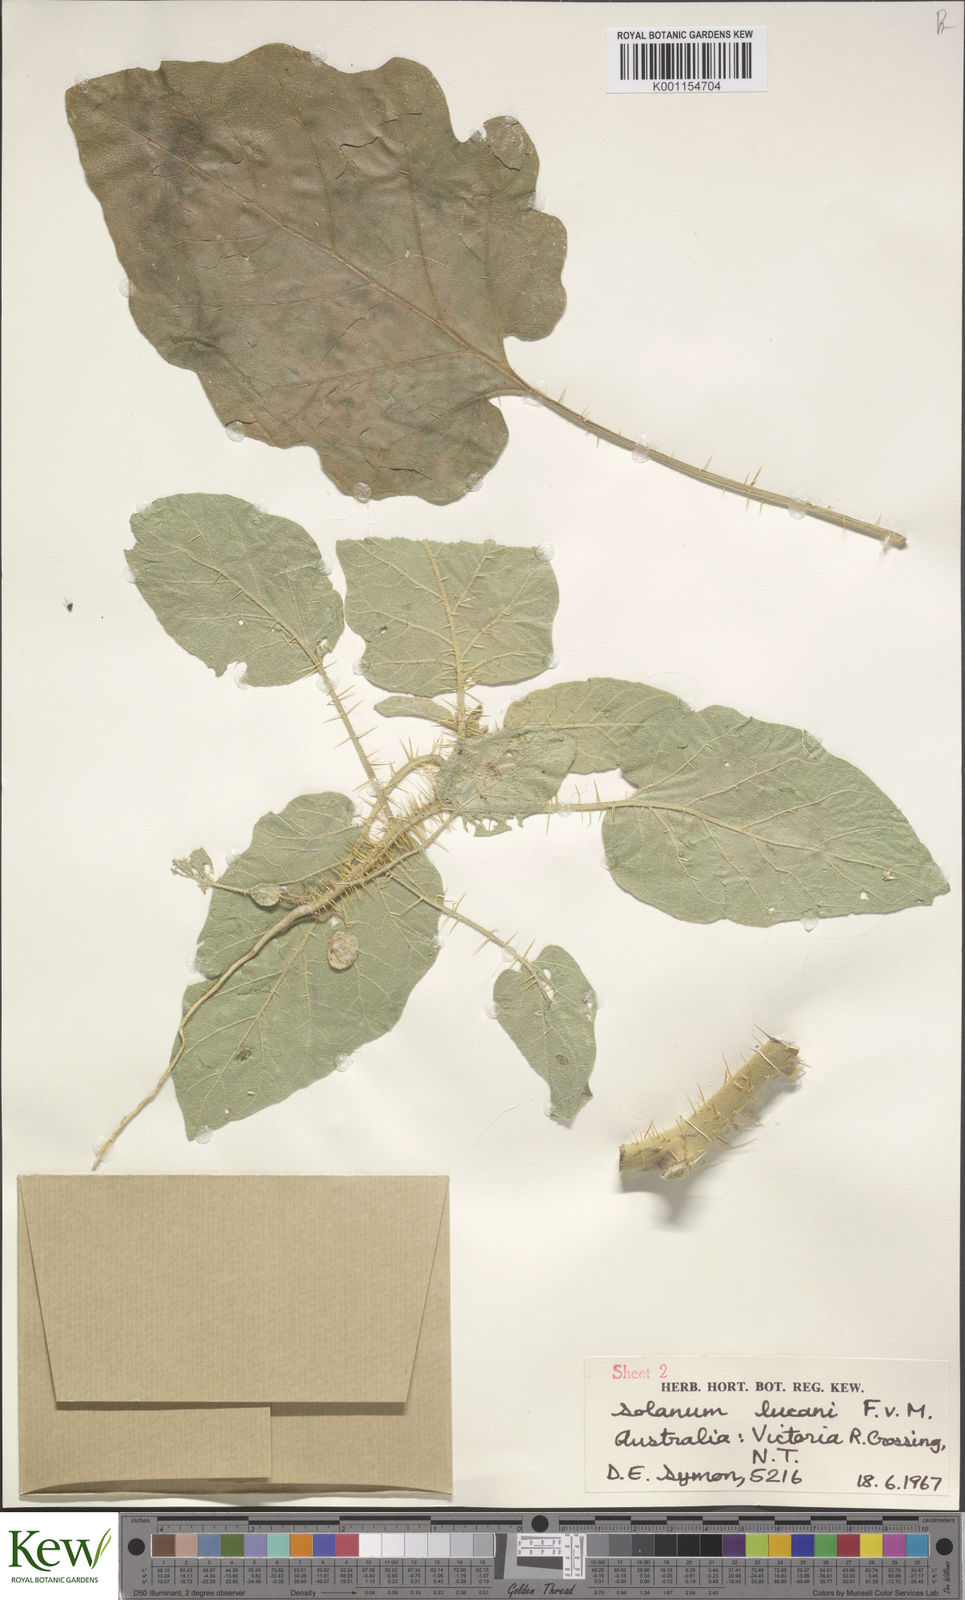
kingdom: Plantae
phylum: Tracheophyta
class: Magnoliopsida
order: Solanales
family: Solanaceae
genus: Solanum
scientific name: Solanum lucani
